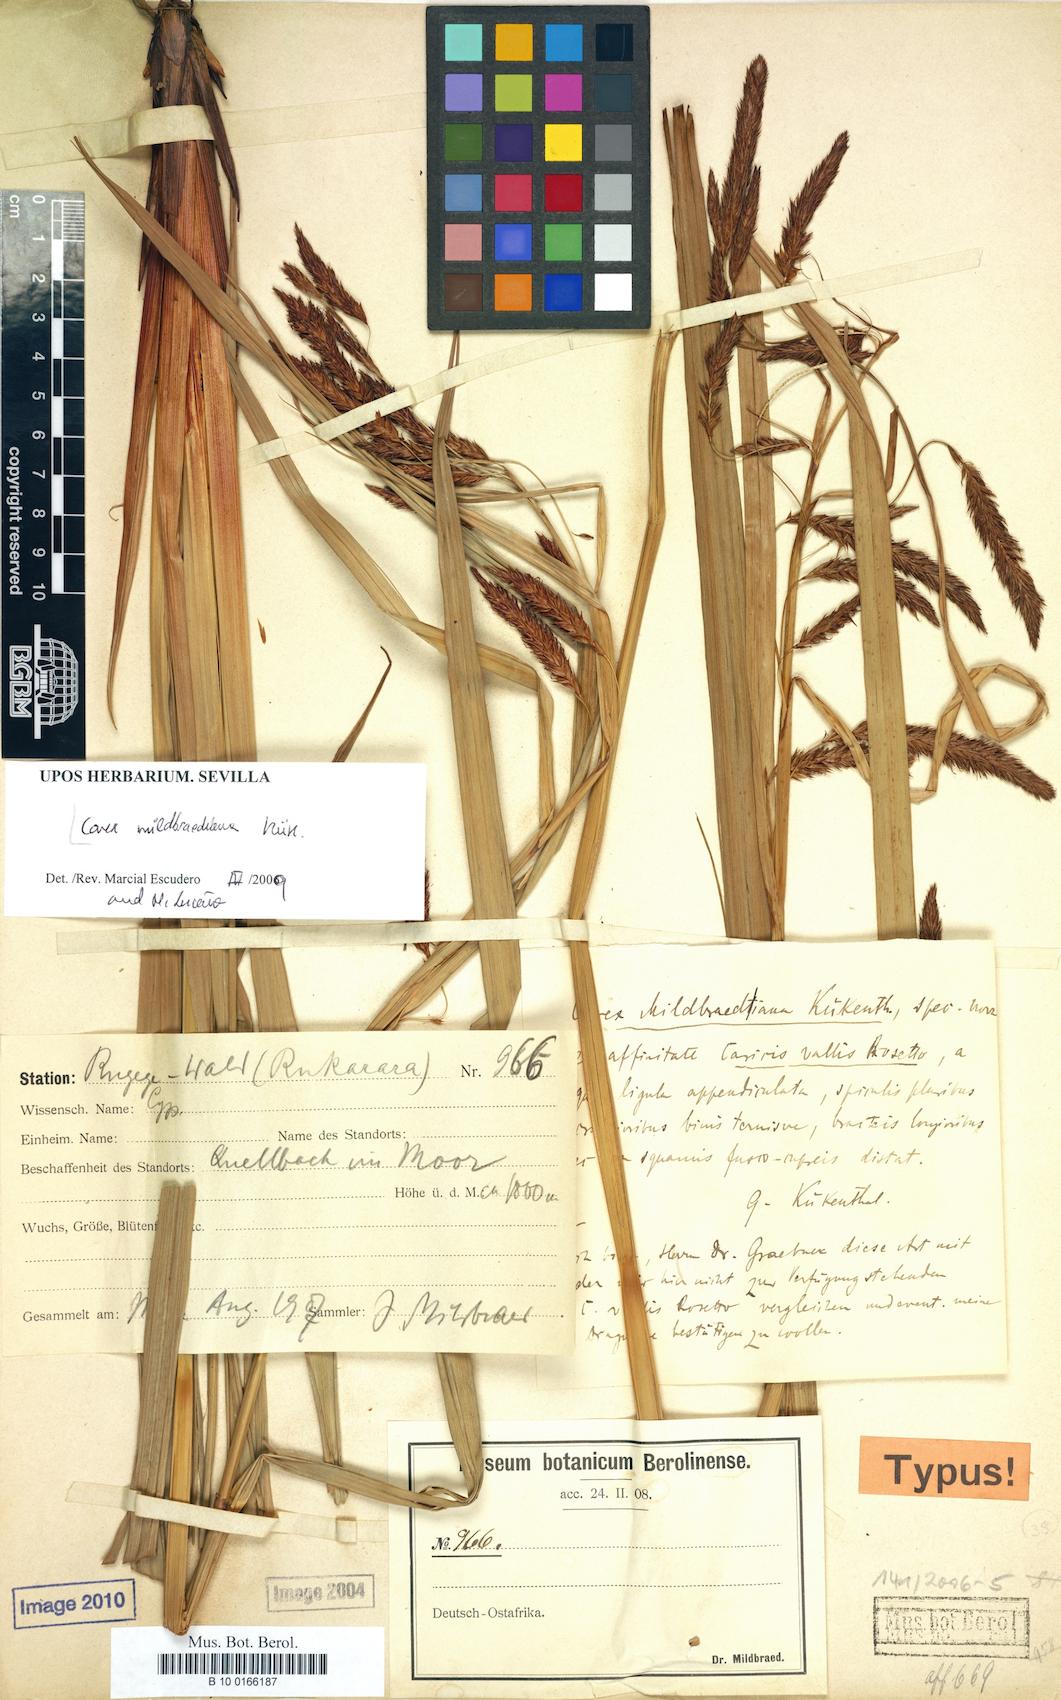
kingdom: Plantae
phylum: Tracheophyta
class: Liliopsida
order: Poales
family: Cyperaceae
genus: Carex
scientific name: Carex mildbraediana
